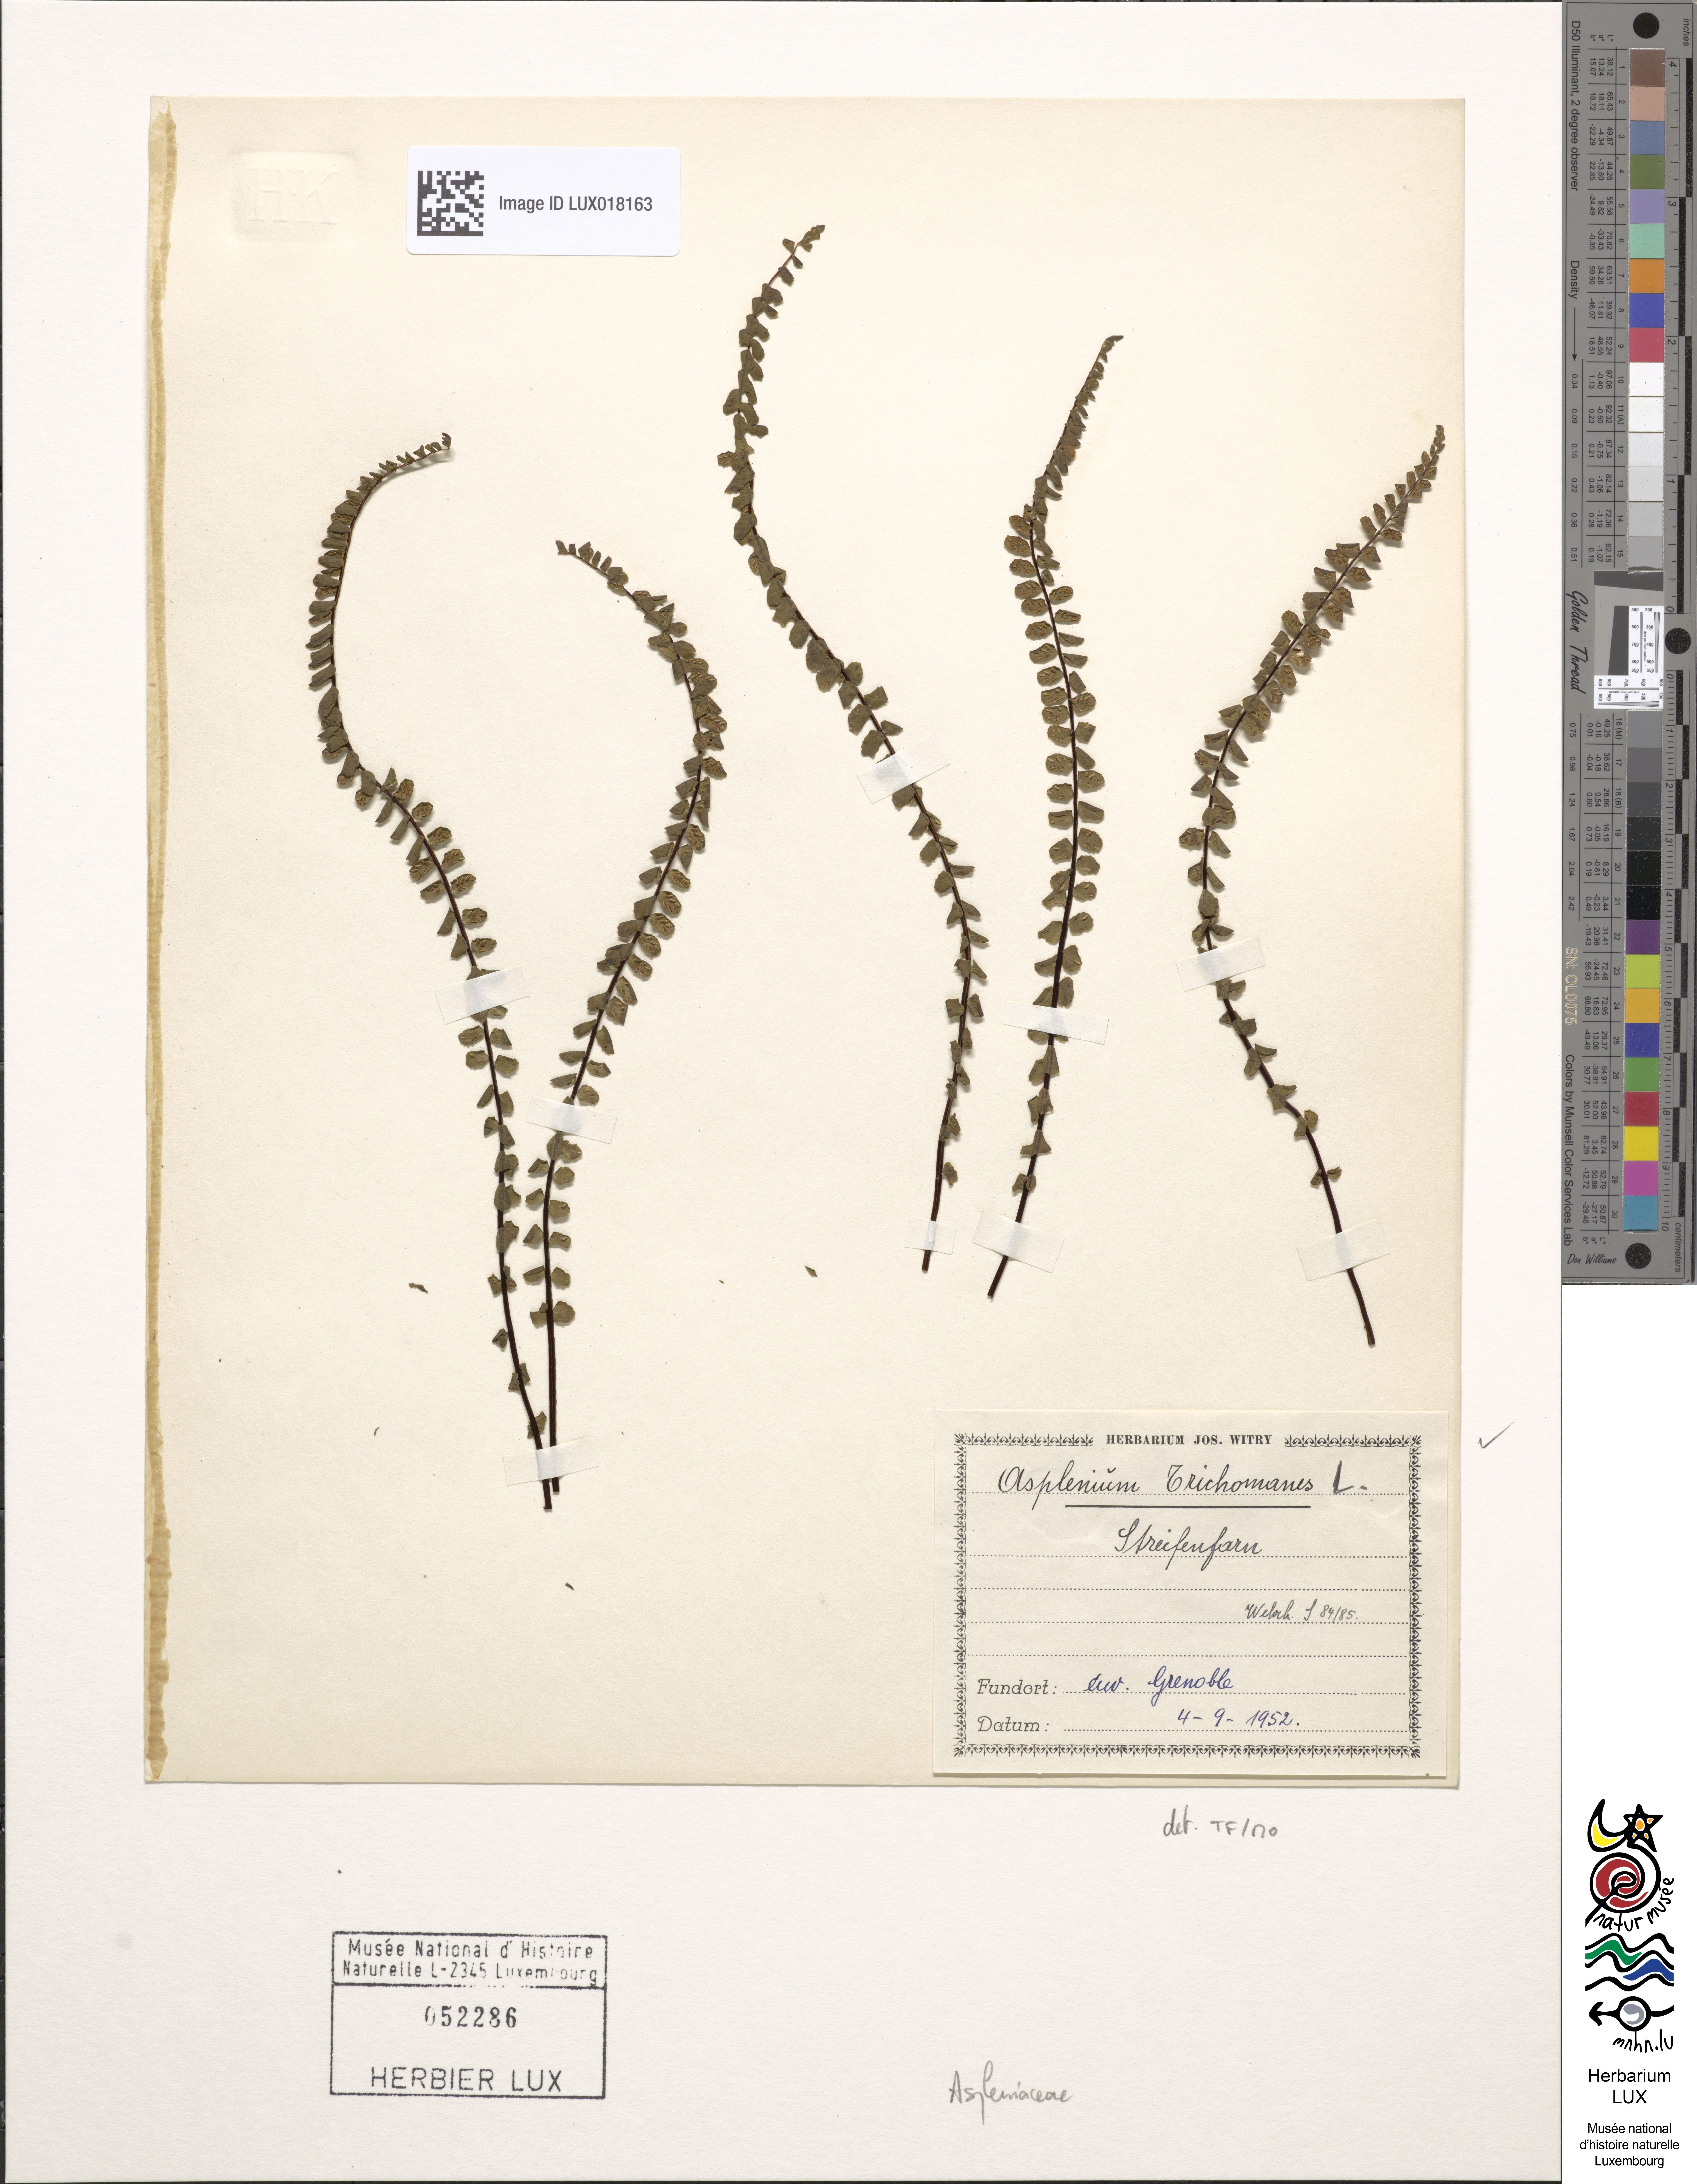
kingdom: Plantae
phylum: Tracheophyta
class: Polypodiopsida
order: Polypodiales
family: Aspleniaceae
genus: Asplenium
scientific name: Asplenium trichomanes
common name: Maidenhair spleenwort
